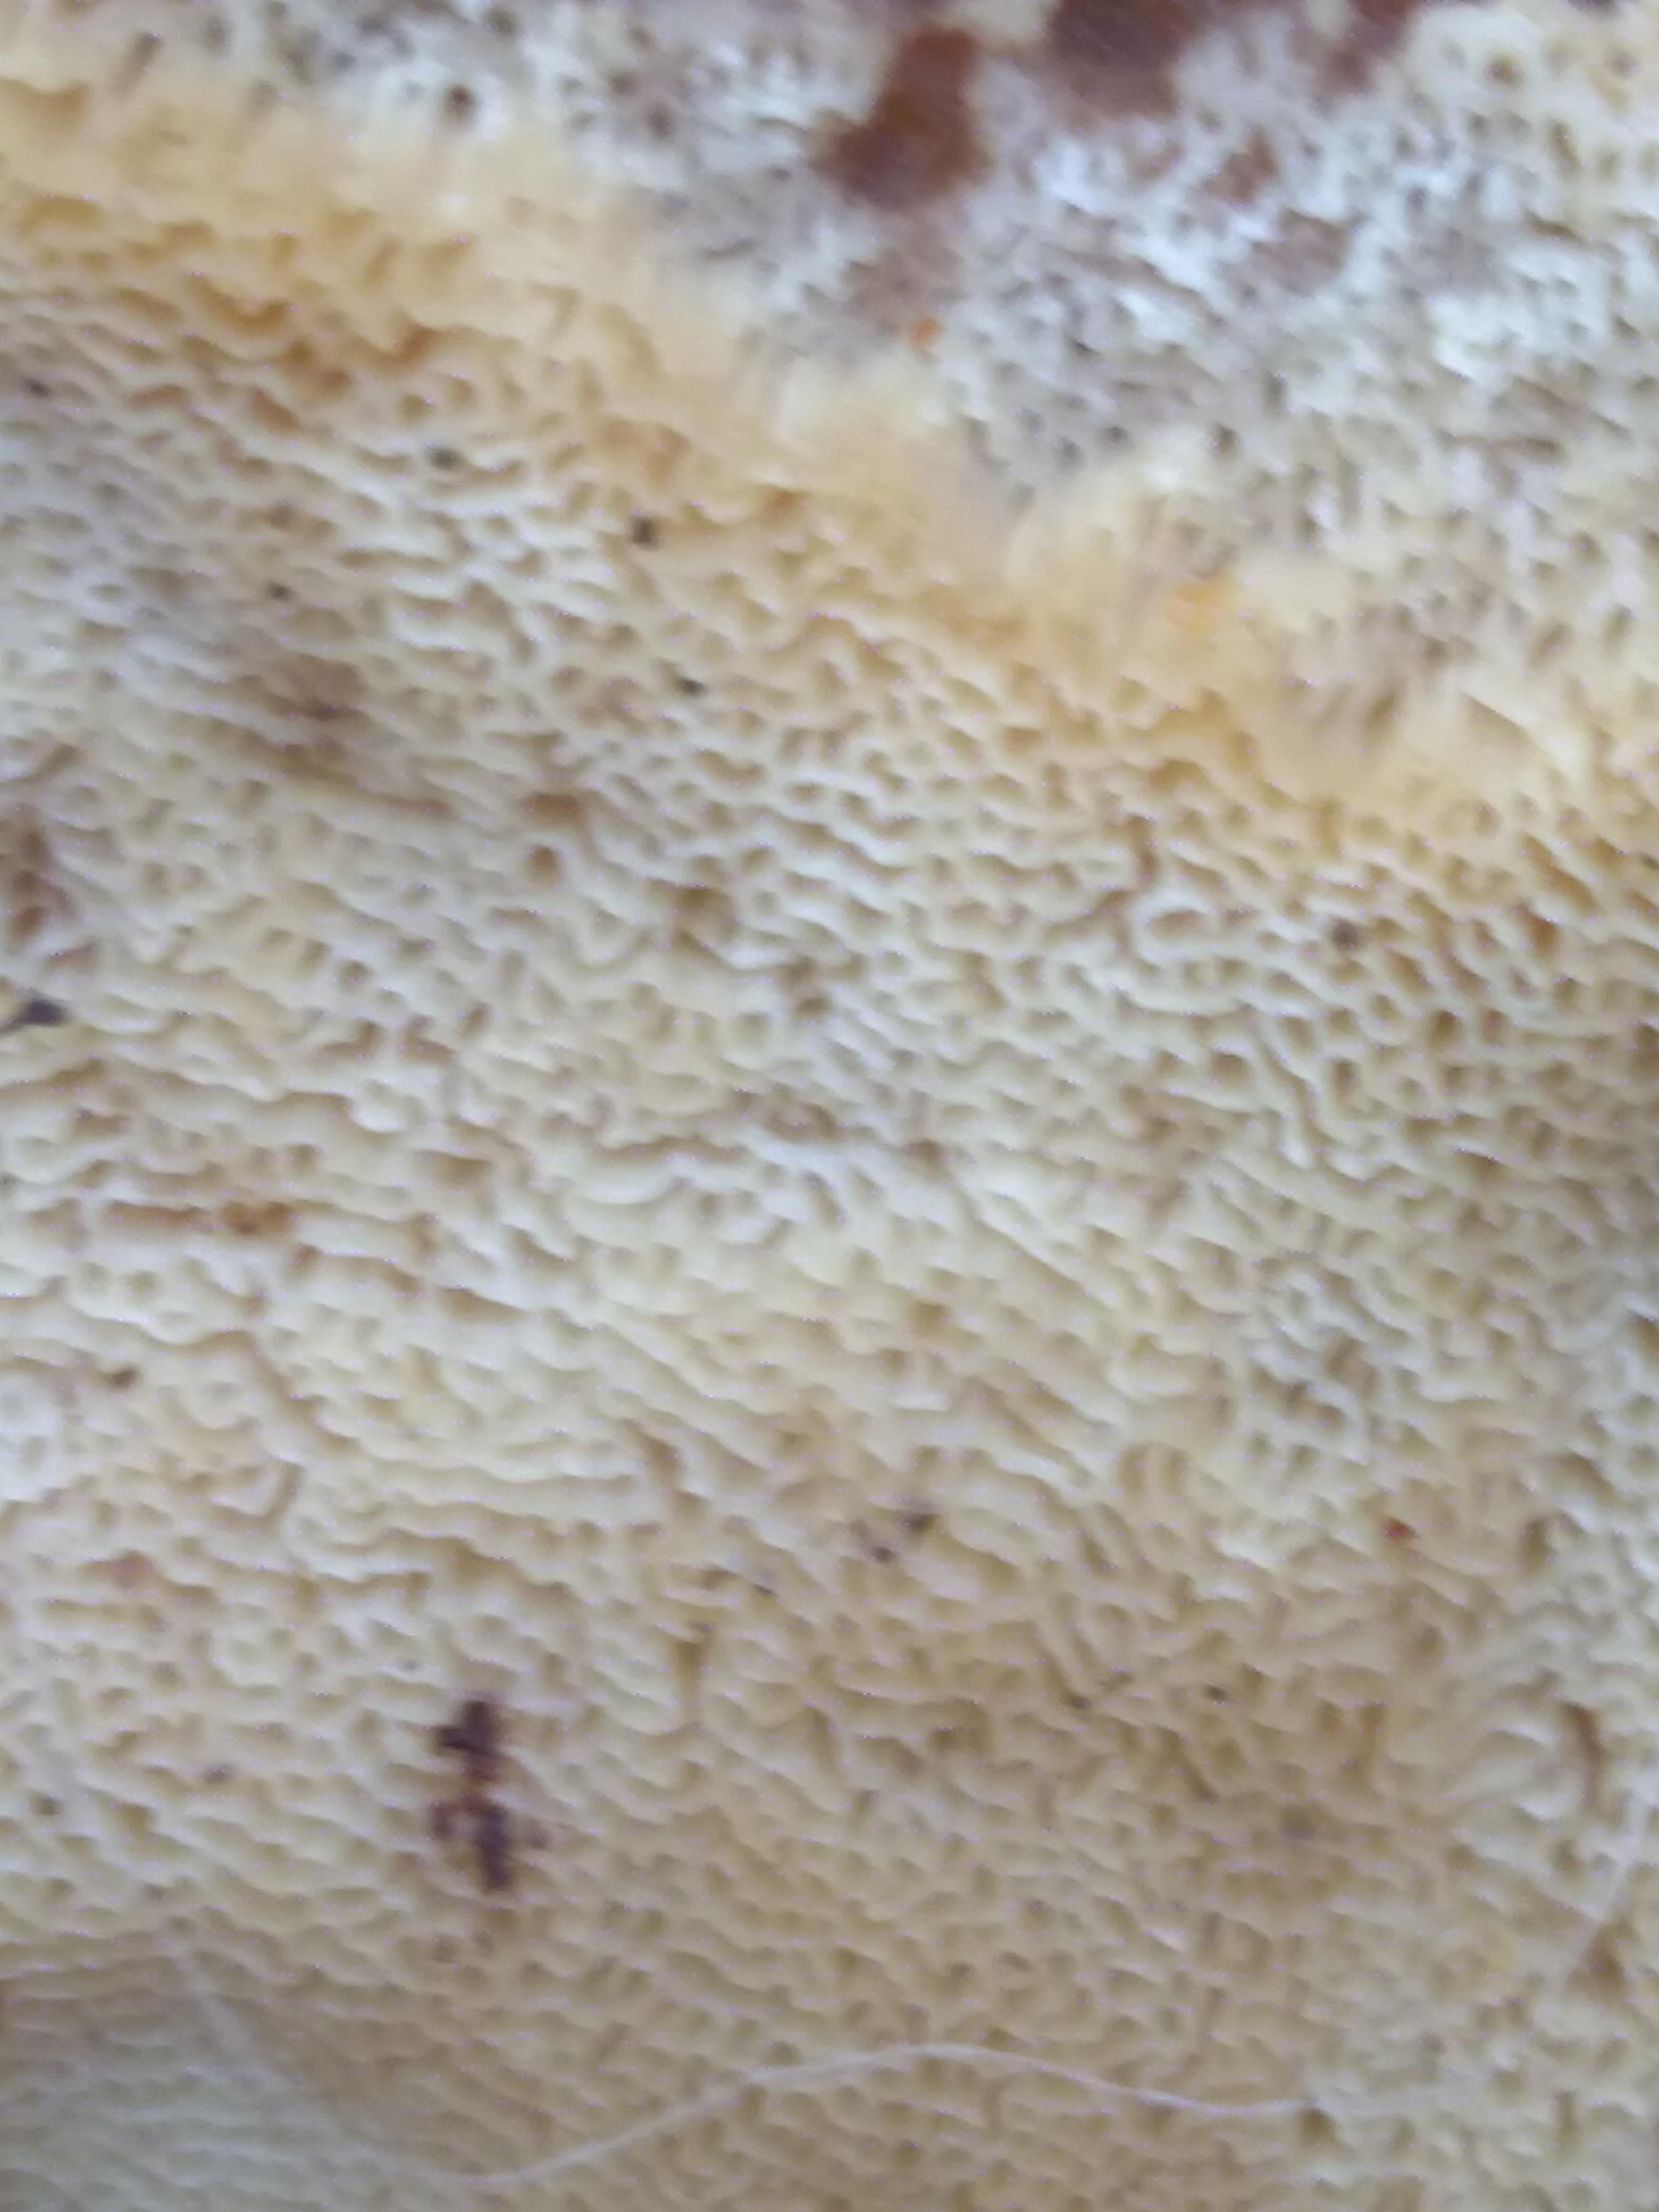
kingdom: Fungi
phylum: Basidiomycota
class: Agaricomycetes
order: Polyporales
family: Phanerochaetaceae
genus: Bjerkandera
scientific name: Bjerkandera fumosa
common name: grågul sodporesvamp
